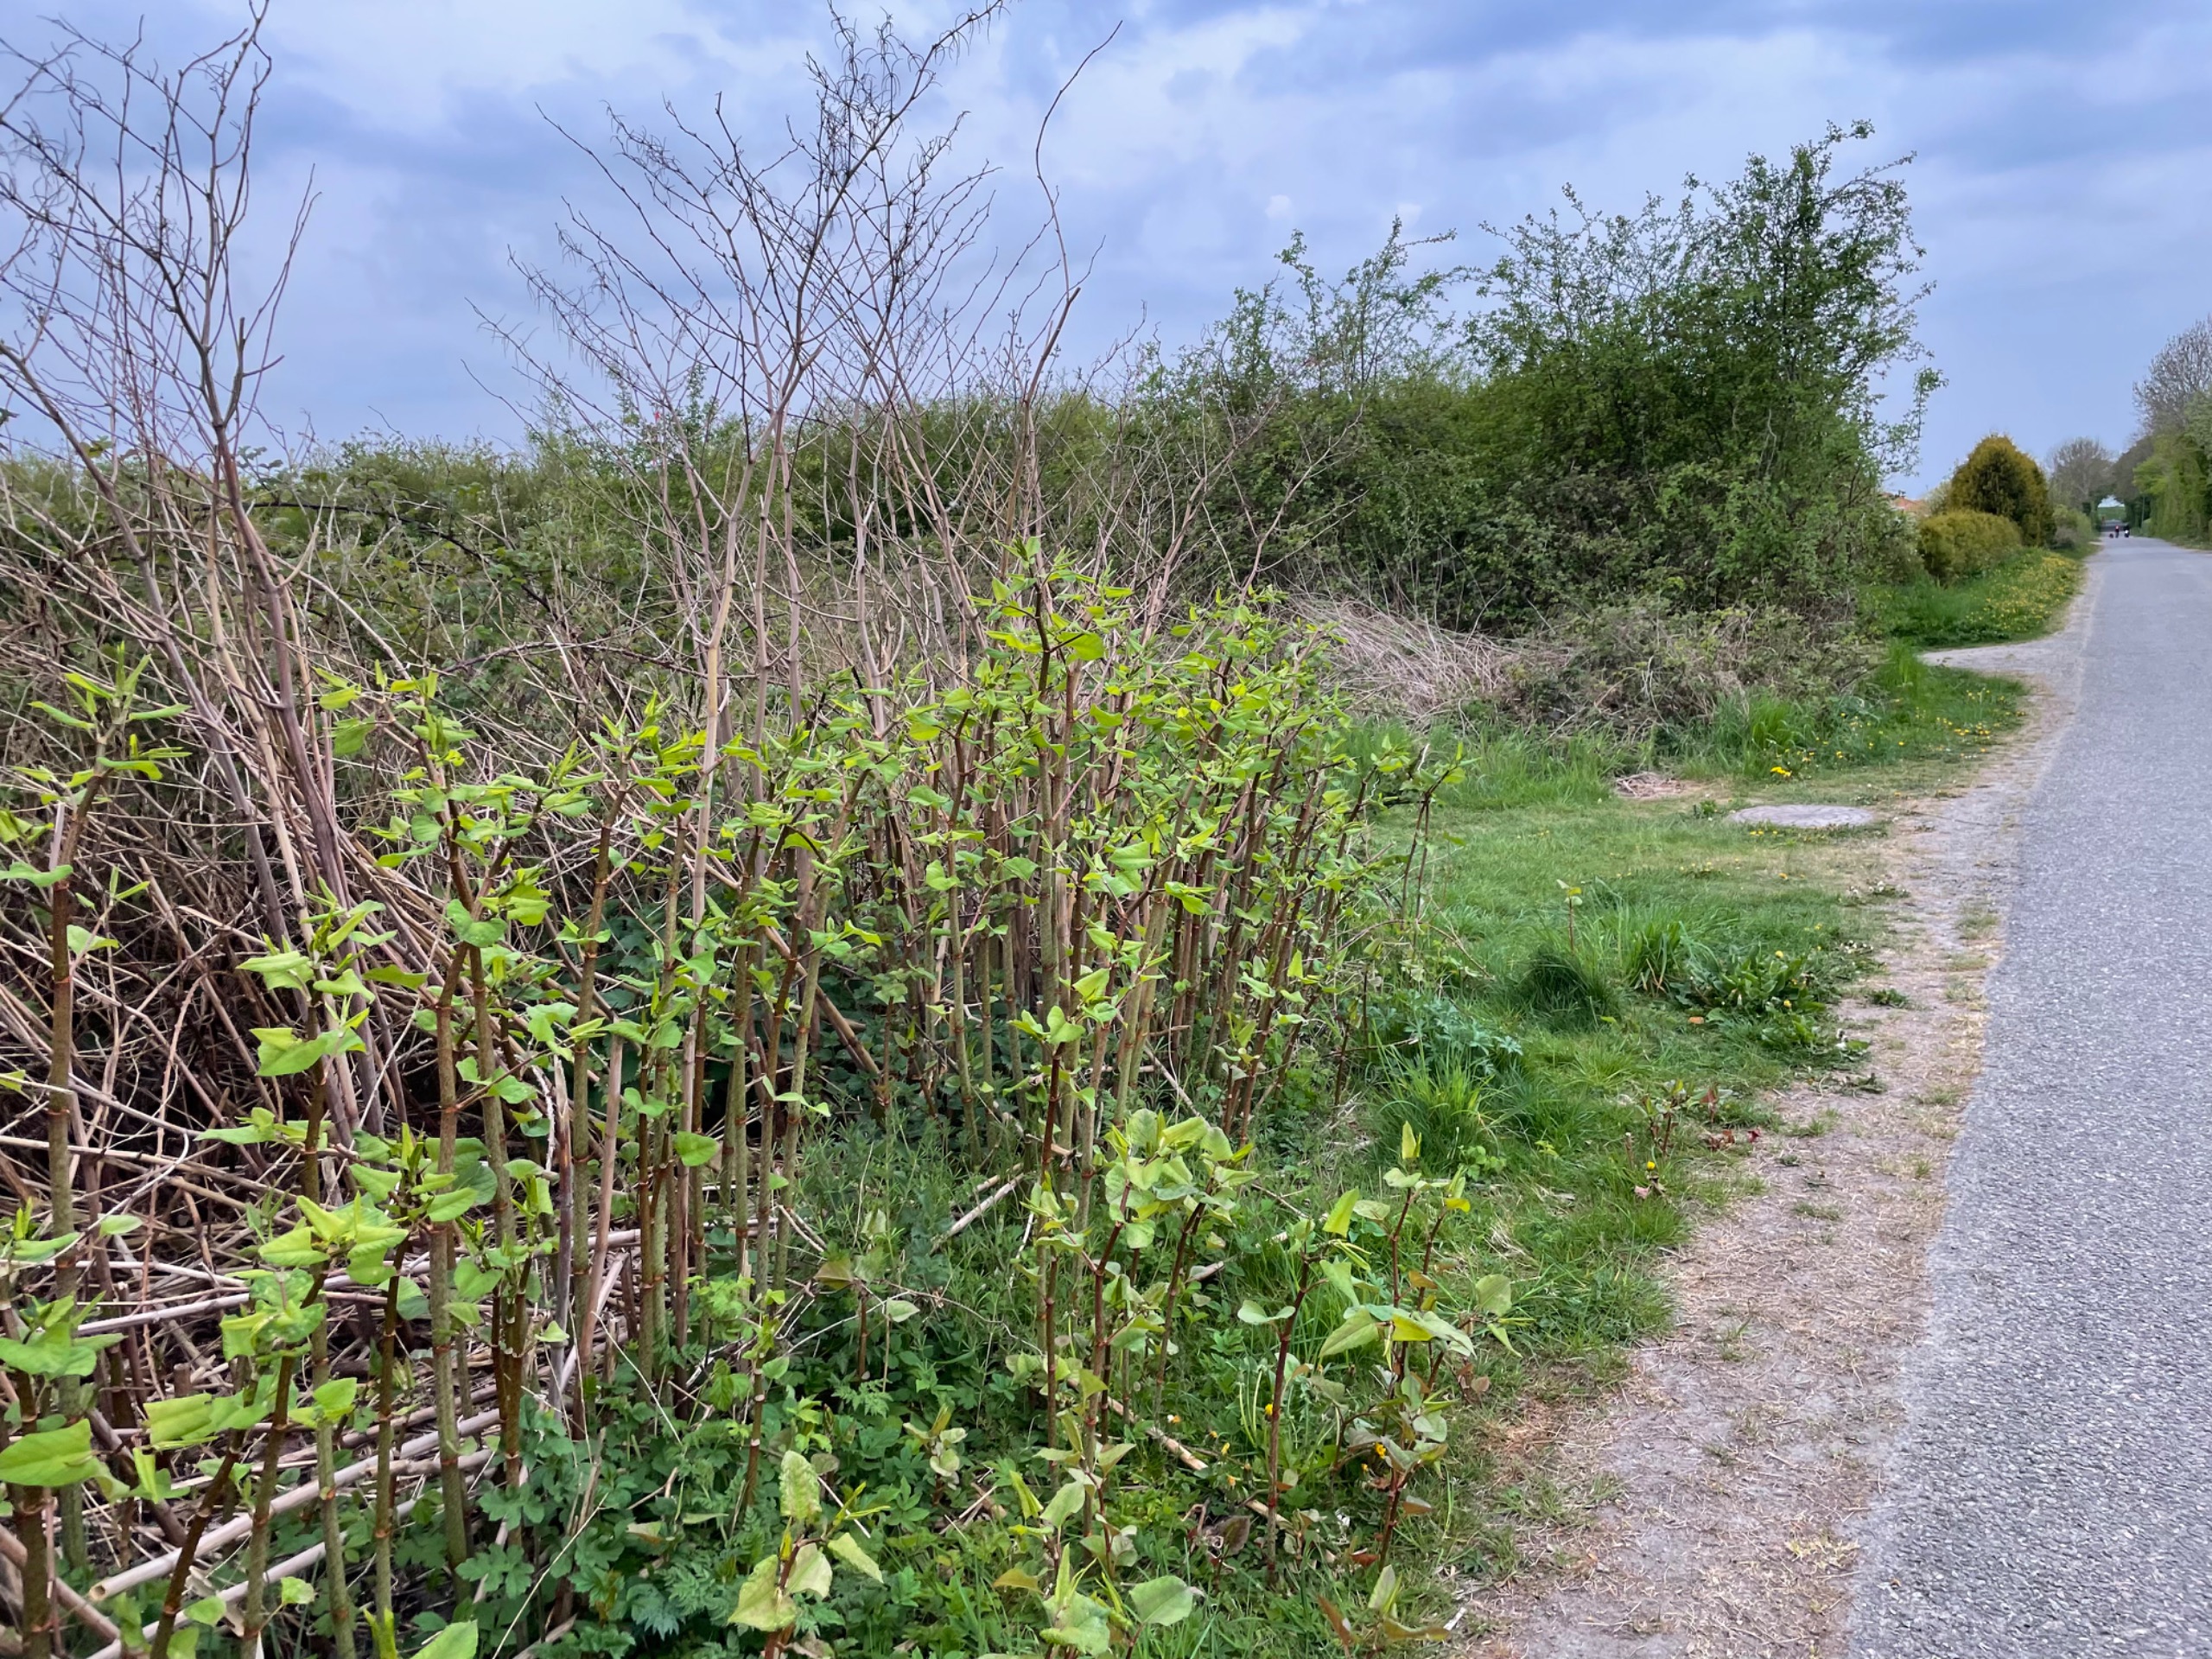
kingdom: Plantae
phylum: Tracheophyta
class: Magnoliopsida
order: Caryophyllales
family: Polygonaceae
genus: Reynoutria
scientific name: Reynoutria japonica
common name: Japan-pileurt
